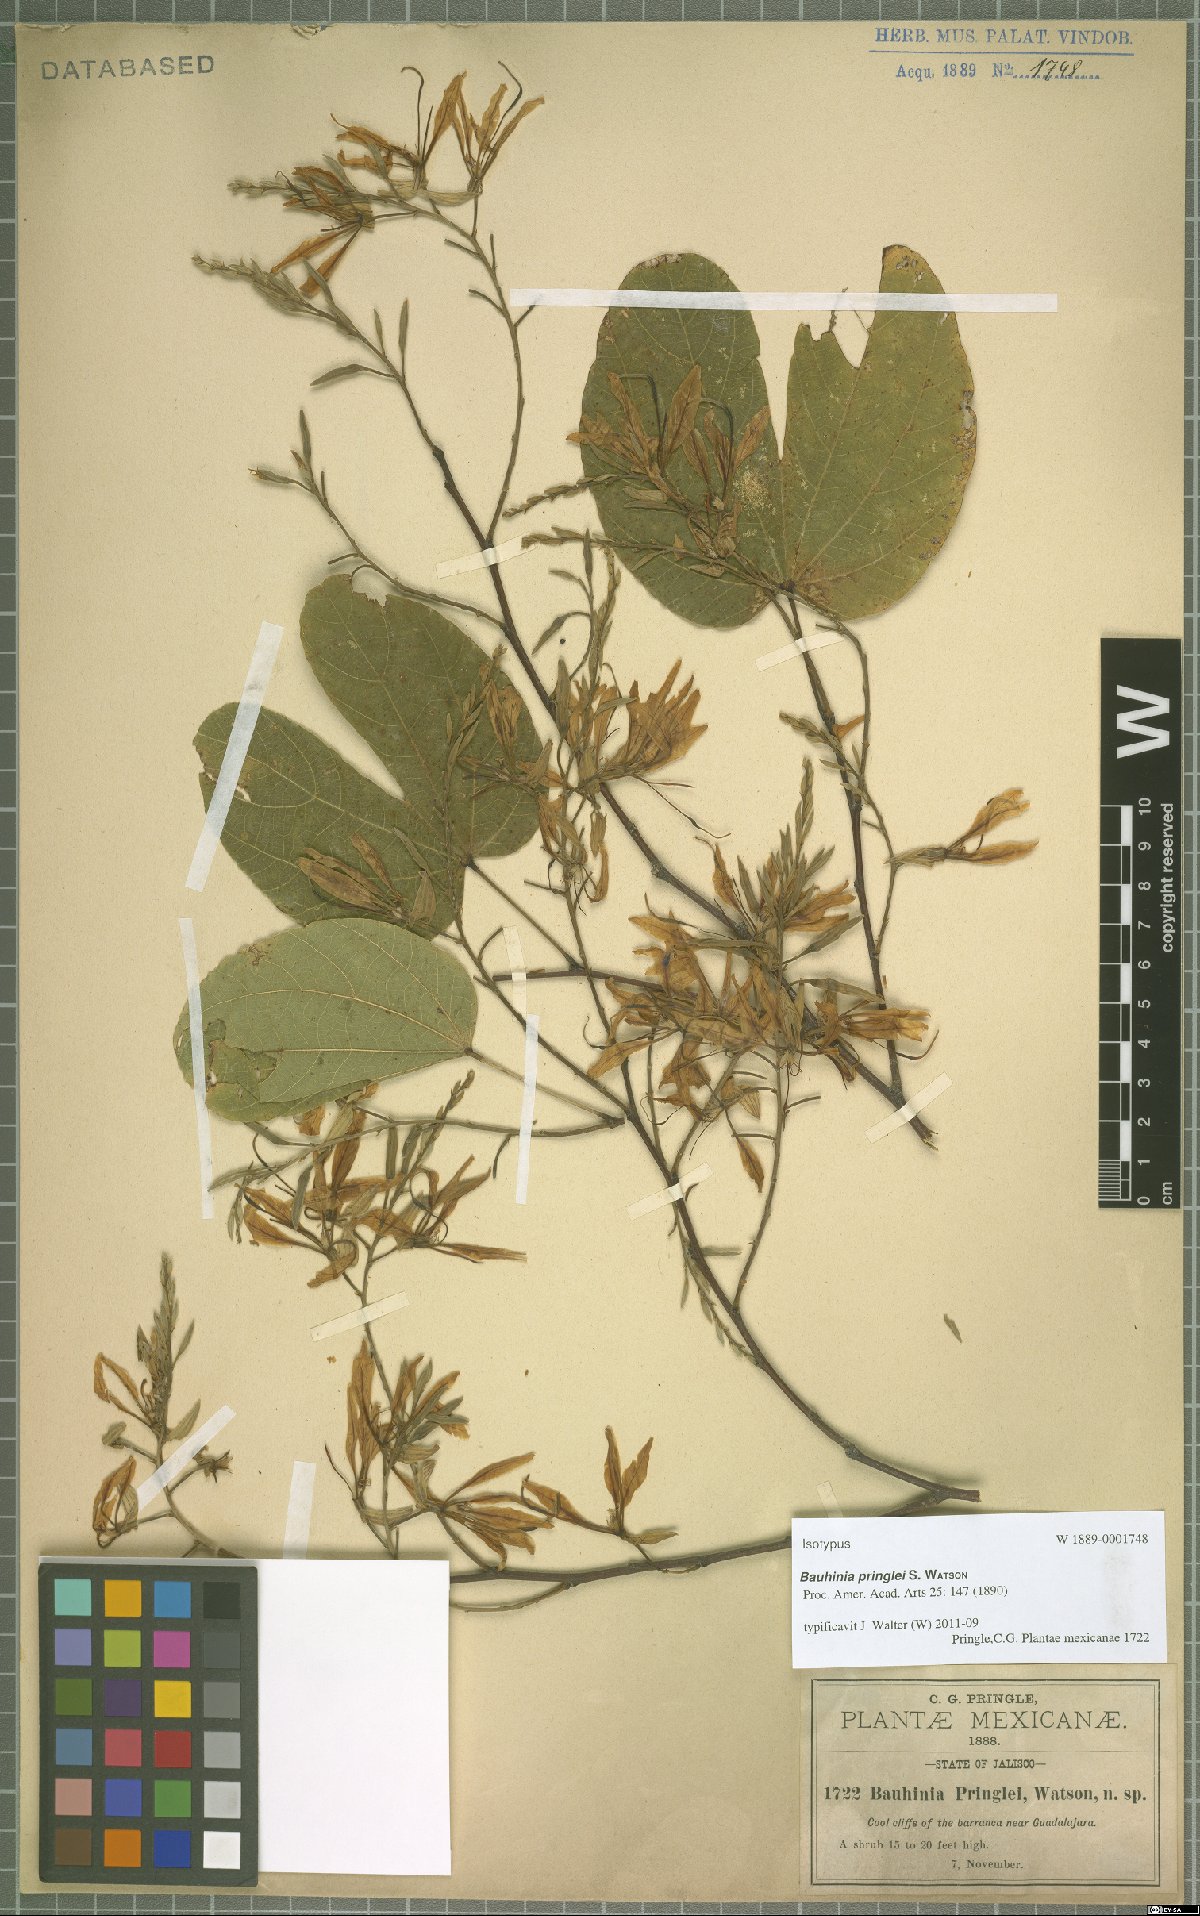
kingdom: Plantae
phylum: Tracheophyta
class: Magnoliopsida
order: Fabales
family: Fabaceae
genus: Bauhinia
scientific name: Bauhinia pringlei
